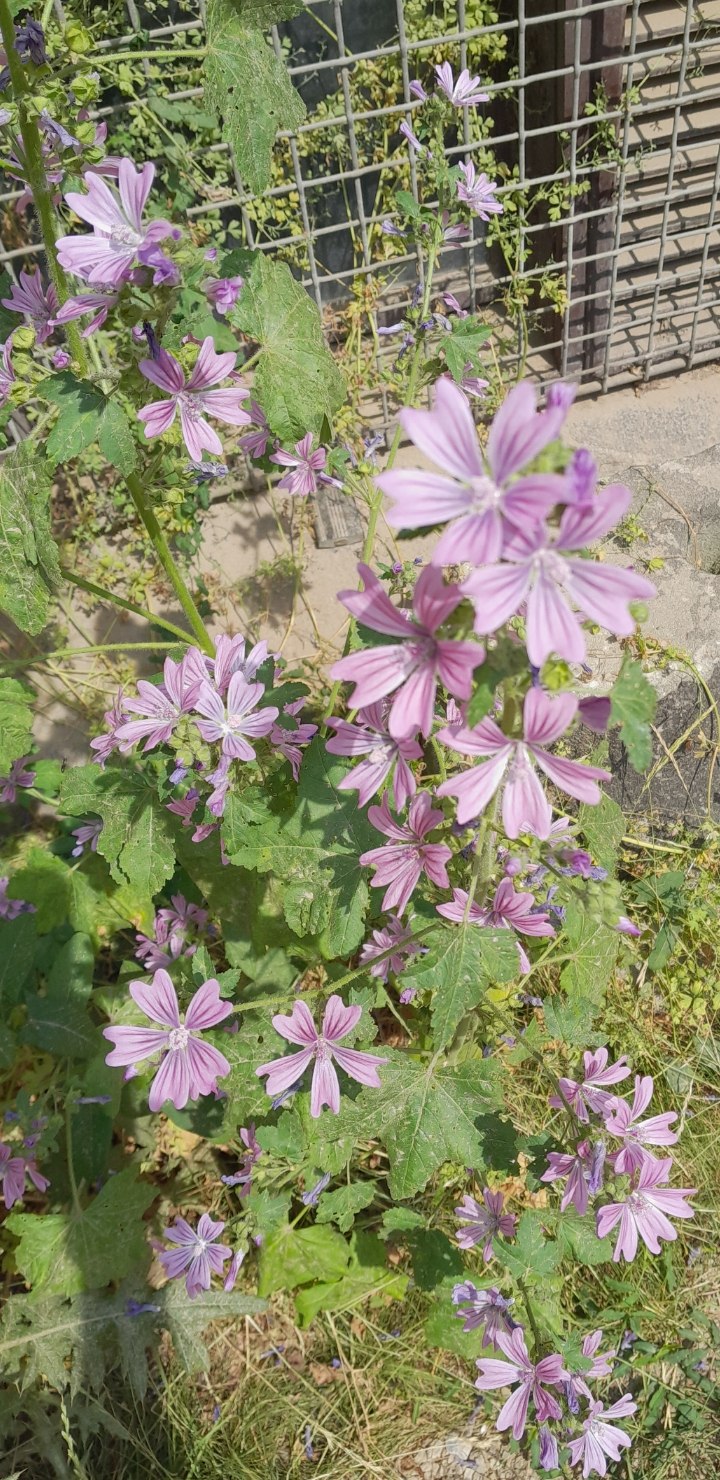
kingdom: Plantae
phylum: Tracheophyta
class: Magnoliopsida
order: Malvales
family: Malvaceae
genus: Malva
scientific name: Malva sylvestris
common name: Almindelig katost
